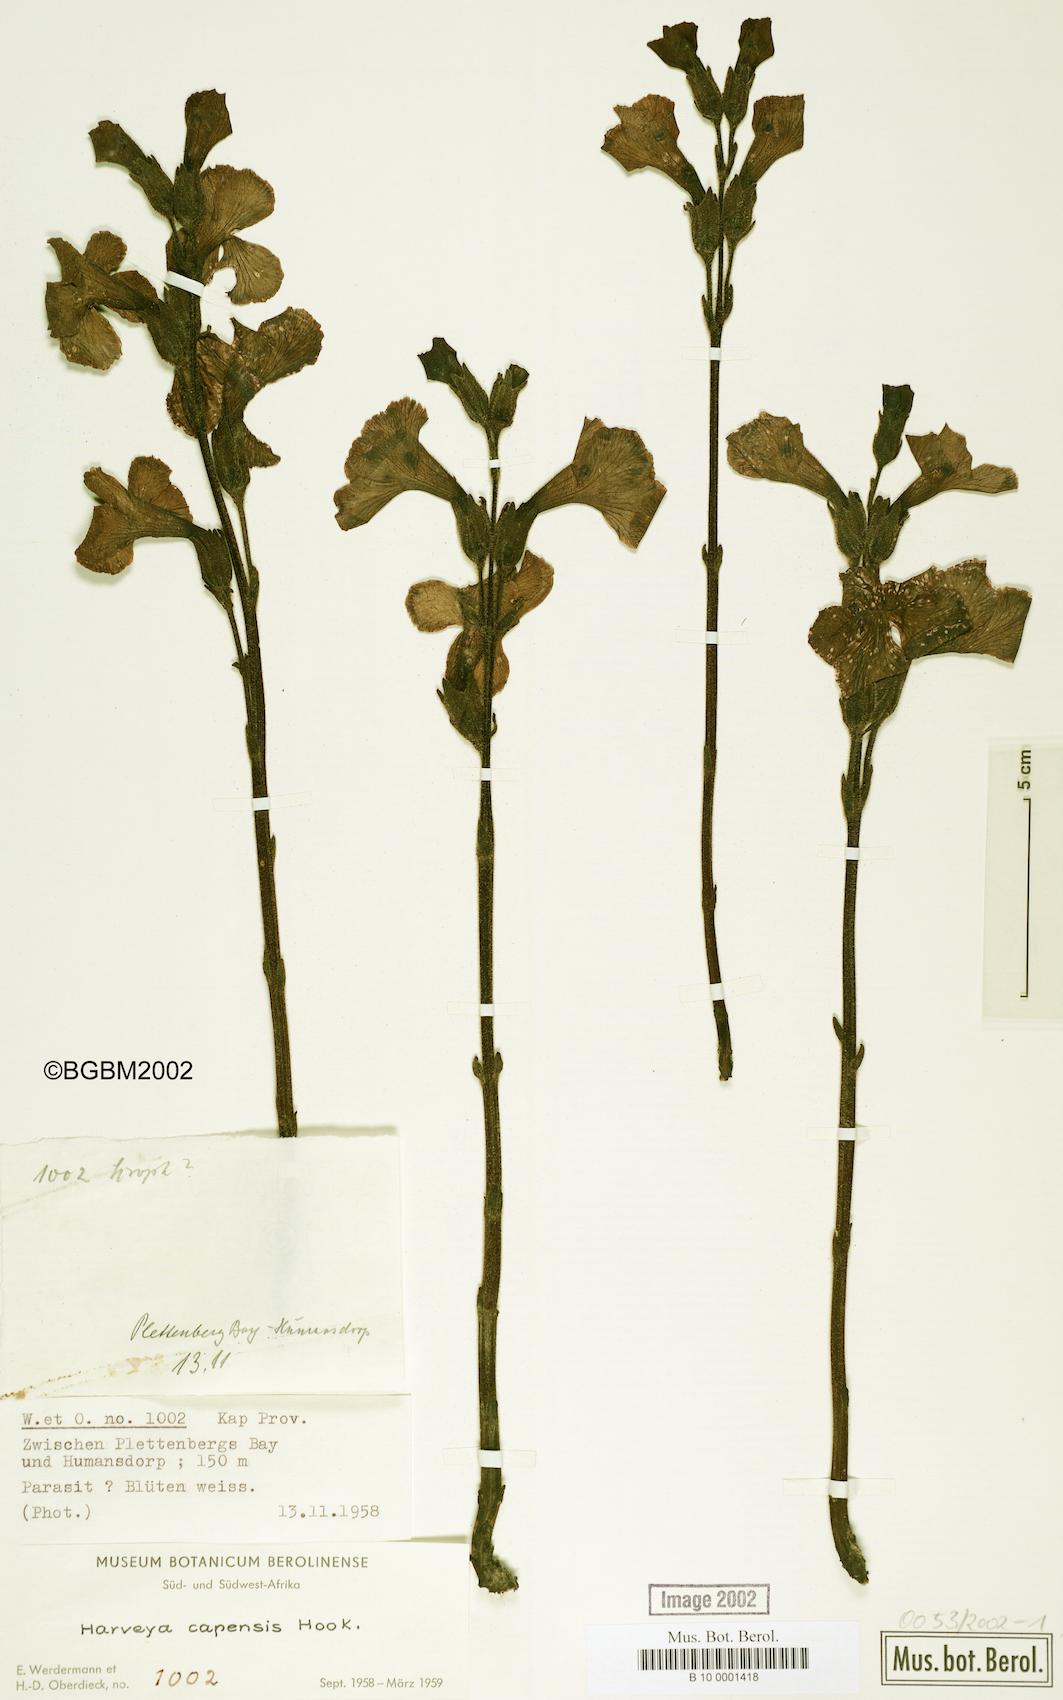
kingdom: Plantae
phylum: Tracheophyta
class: Magnoliopsida
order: Lamiales
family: Orobanchaceae
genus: Harveya
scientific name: Harveya capensis
